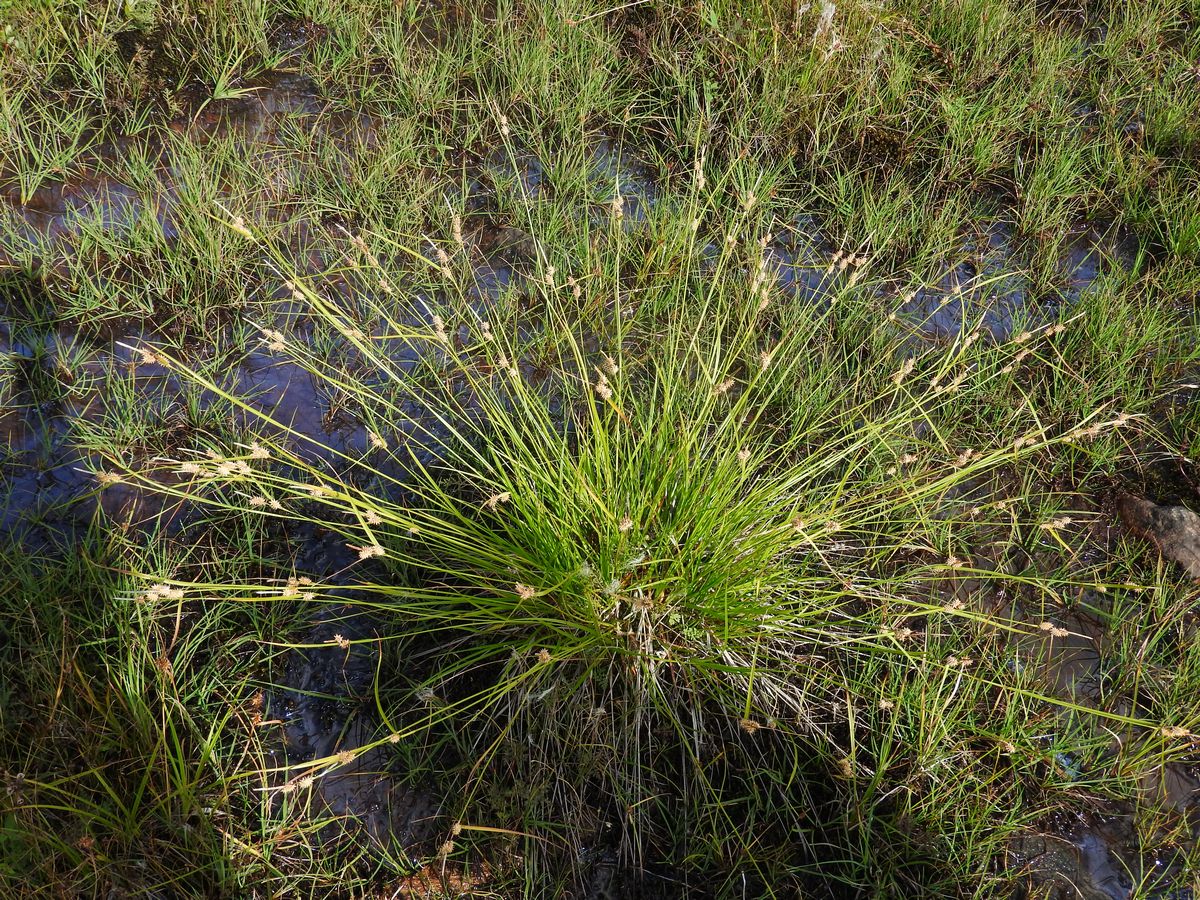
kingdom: Plantae
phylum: Tracheophyta
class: Liliopsida
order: Poales
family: Cyperaceae
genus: Carex
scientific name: Carex lepidocarpa
